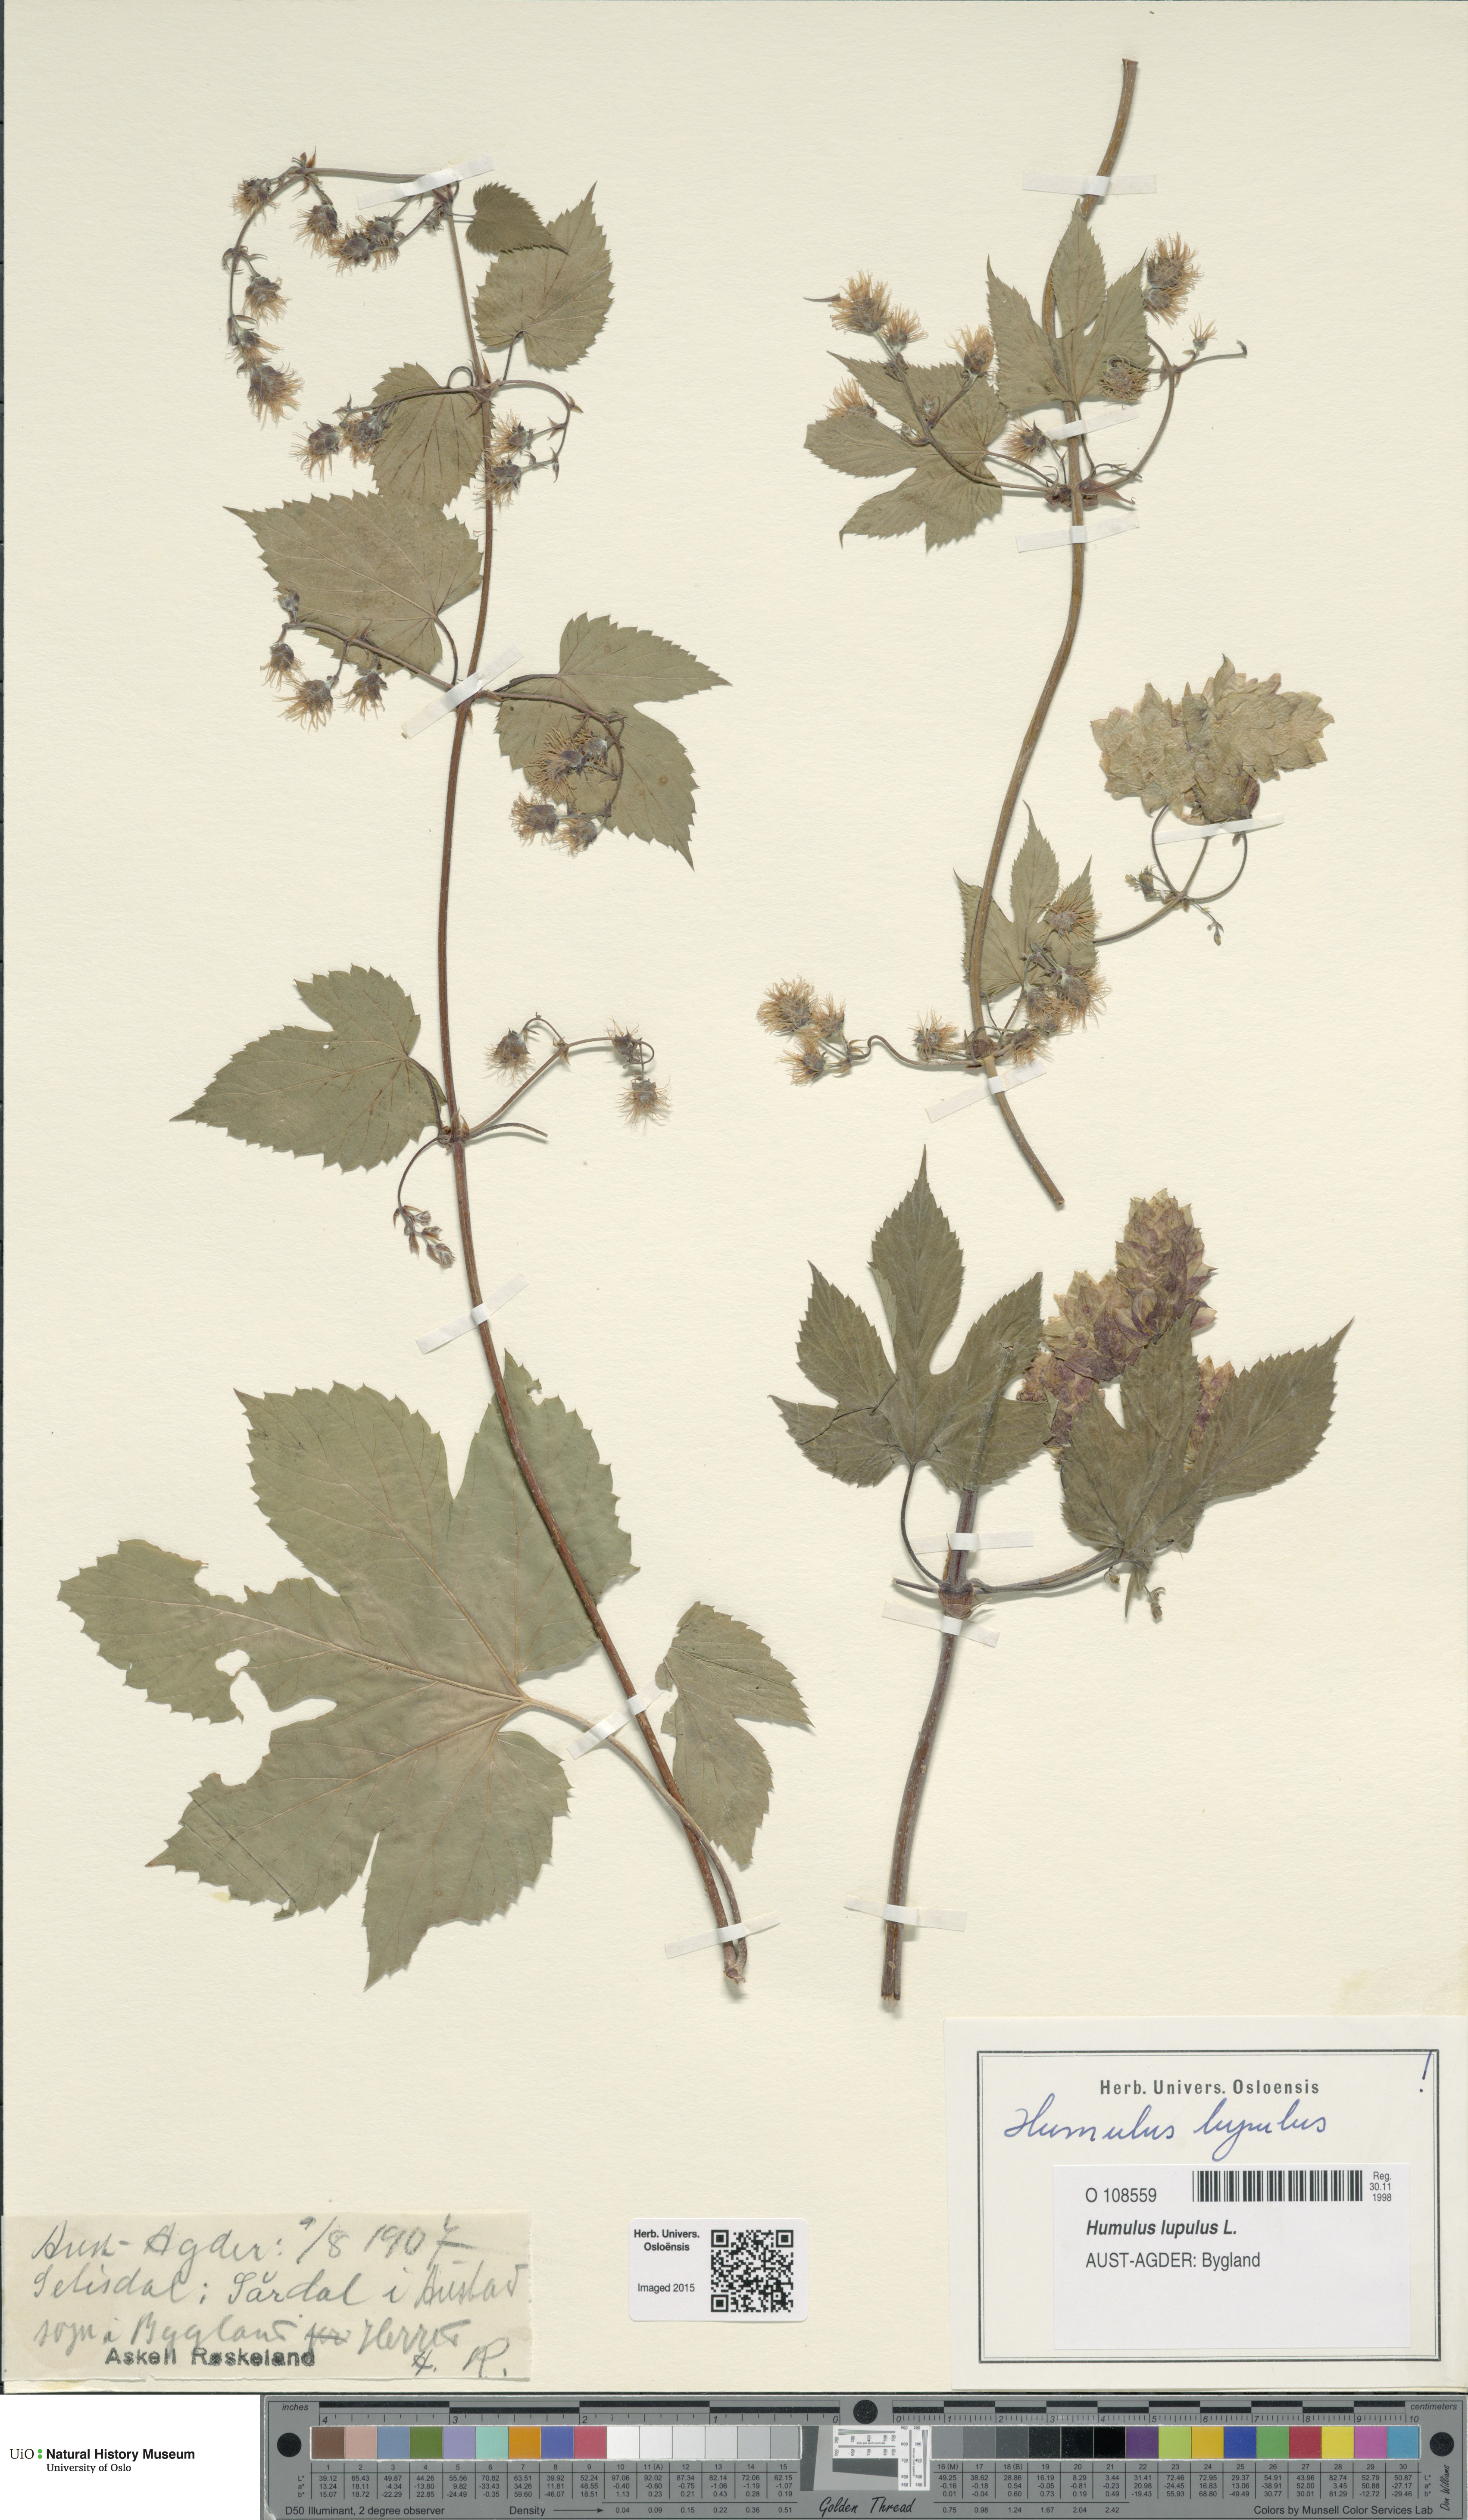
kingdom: Plantae
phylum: Tracheophyta
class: Magnoliopsida
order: Rosales
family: Cannabaceae
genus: Humulus
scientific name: Humulus lupulus
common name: Hop
